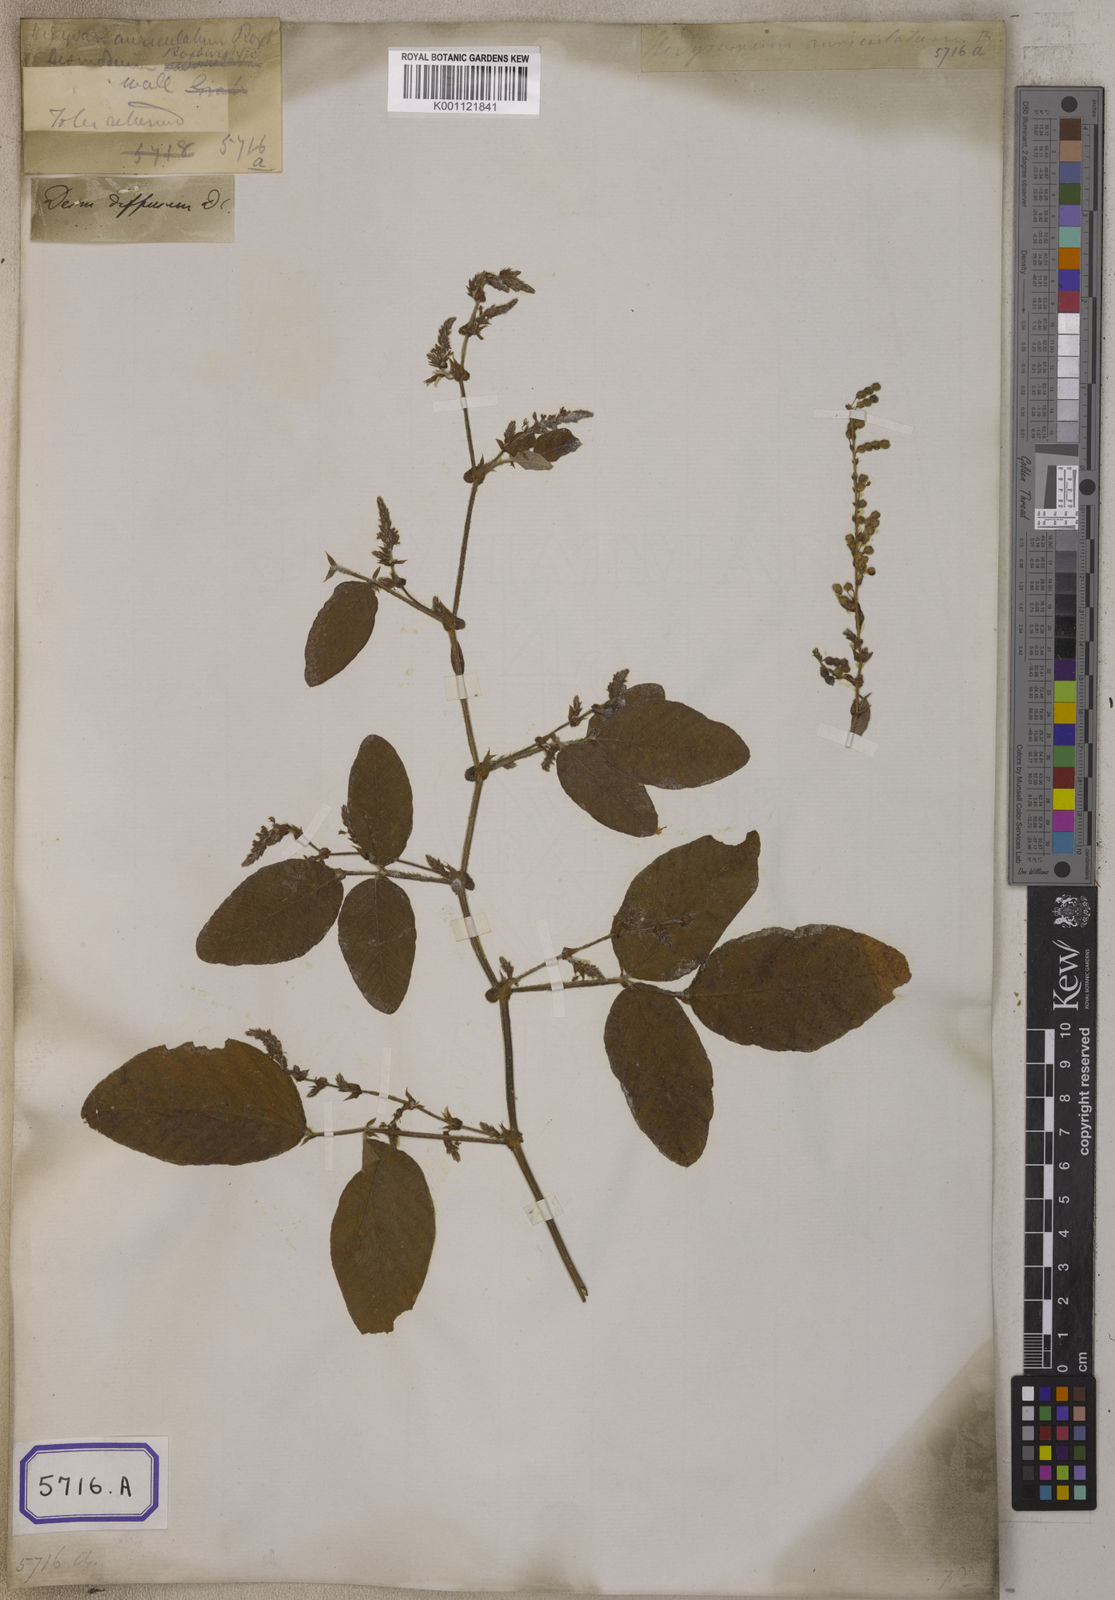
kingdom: Plantae
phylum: Tracheophyta
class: Magnoliopsida
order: Fabales
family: Fabaceae
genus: Polhillides
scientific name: Polhillides velutina
